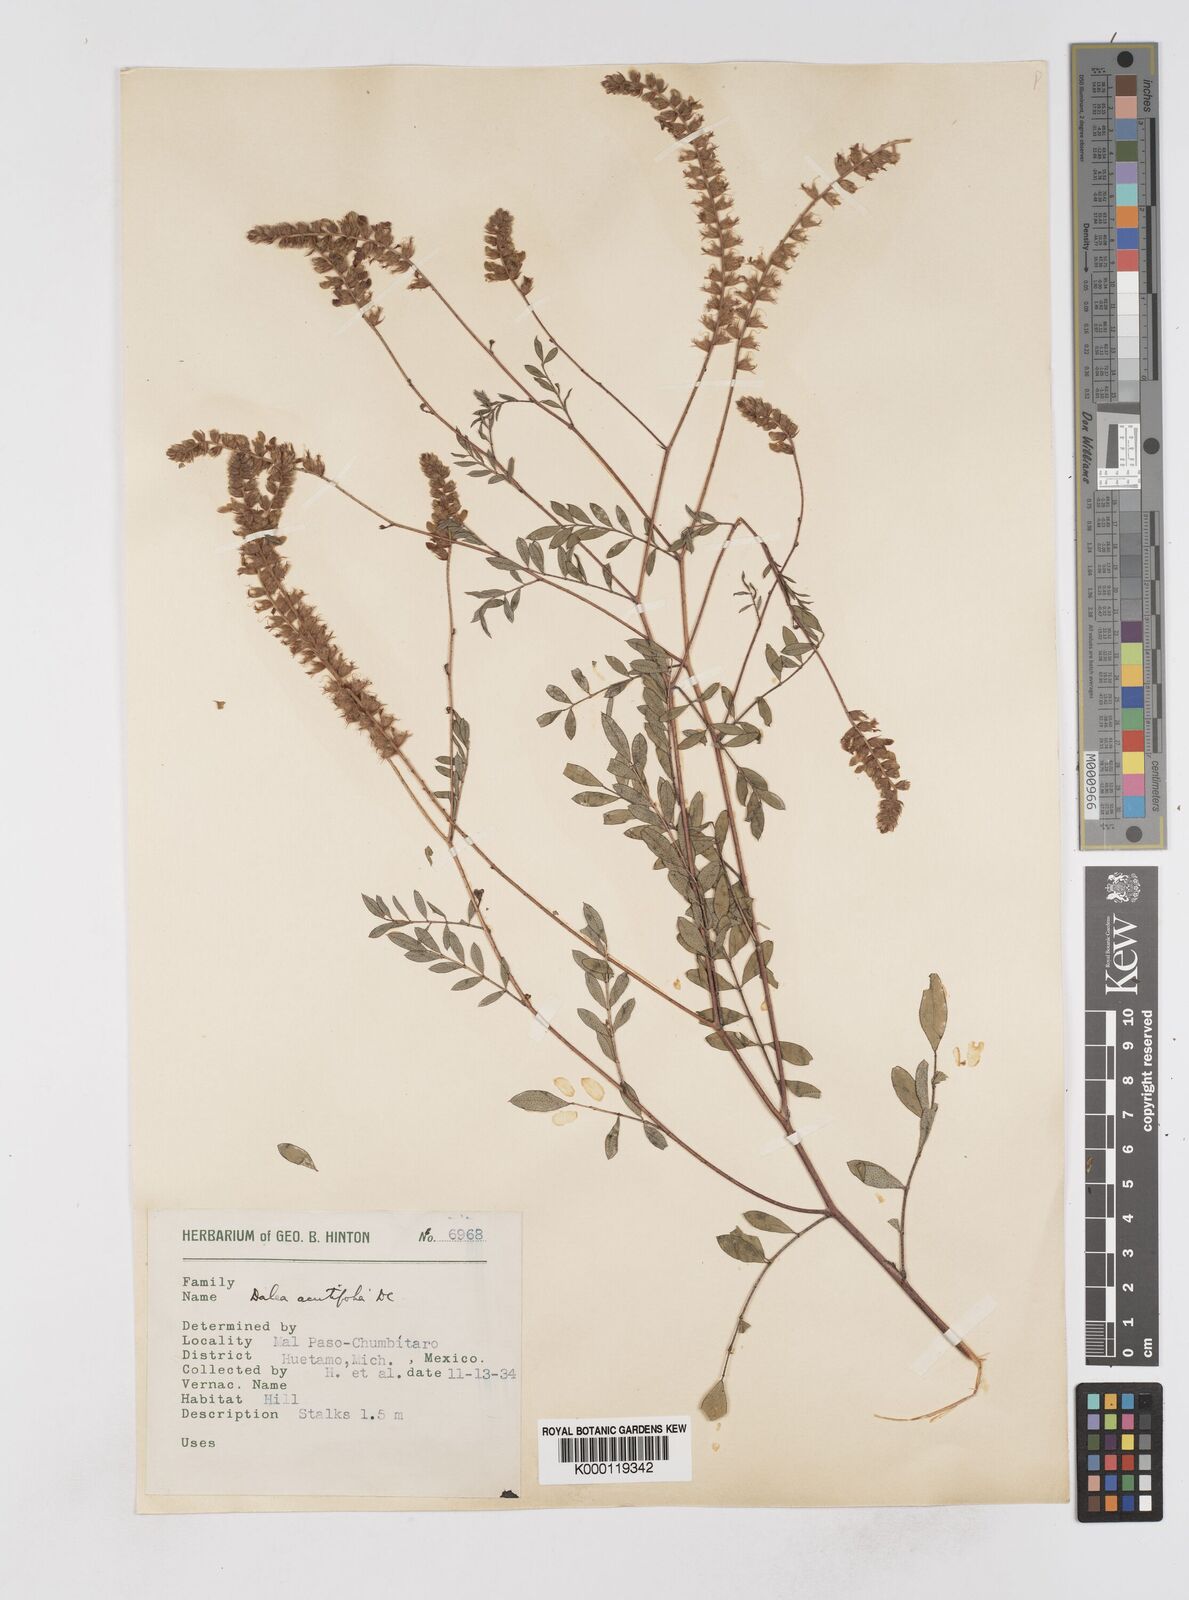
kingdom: Plantae
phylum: Tracheophyta
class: Magnoliopsida
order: Fabales
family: Fabaceae
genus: Dalea
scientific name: Dalea cliffortiana
